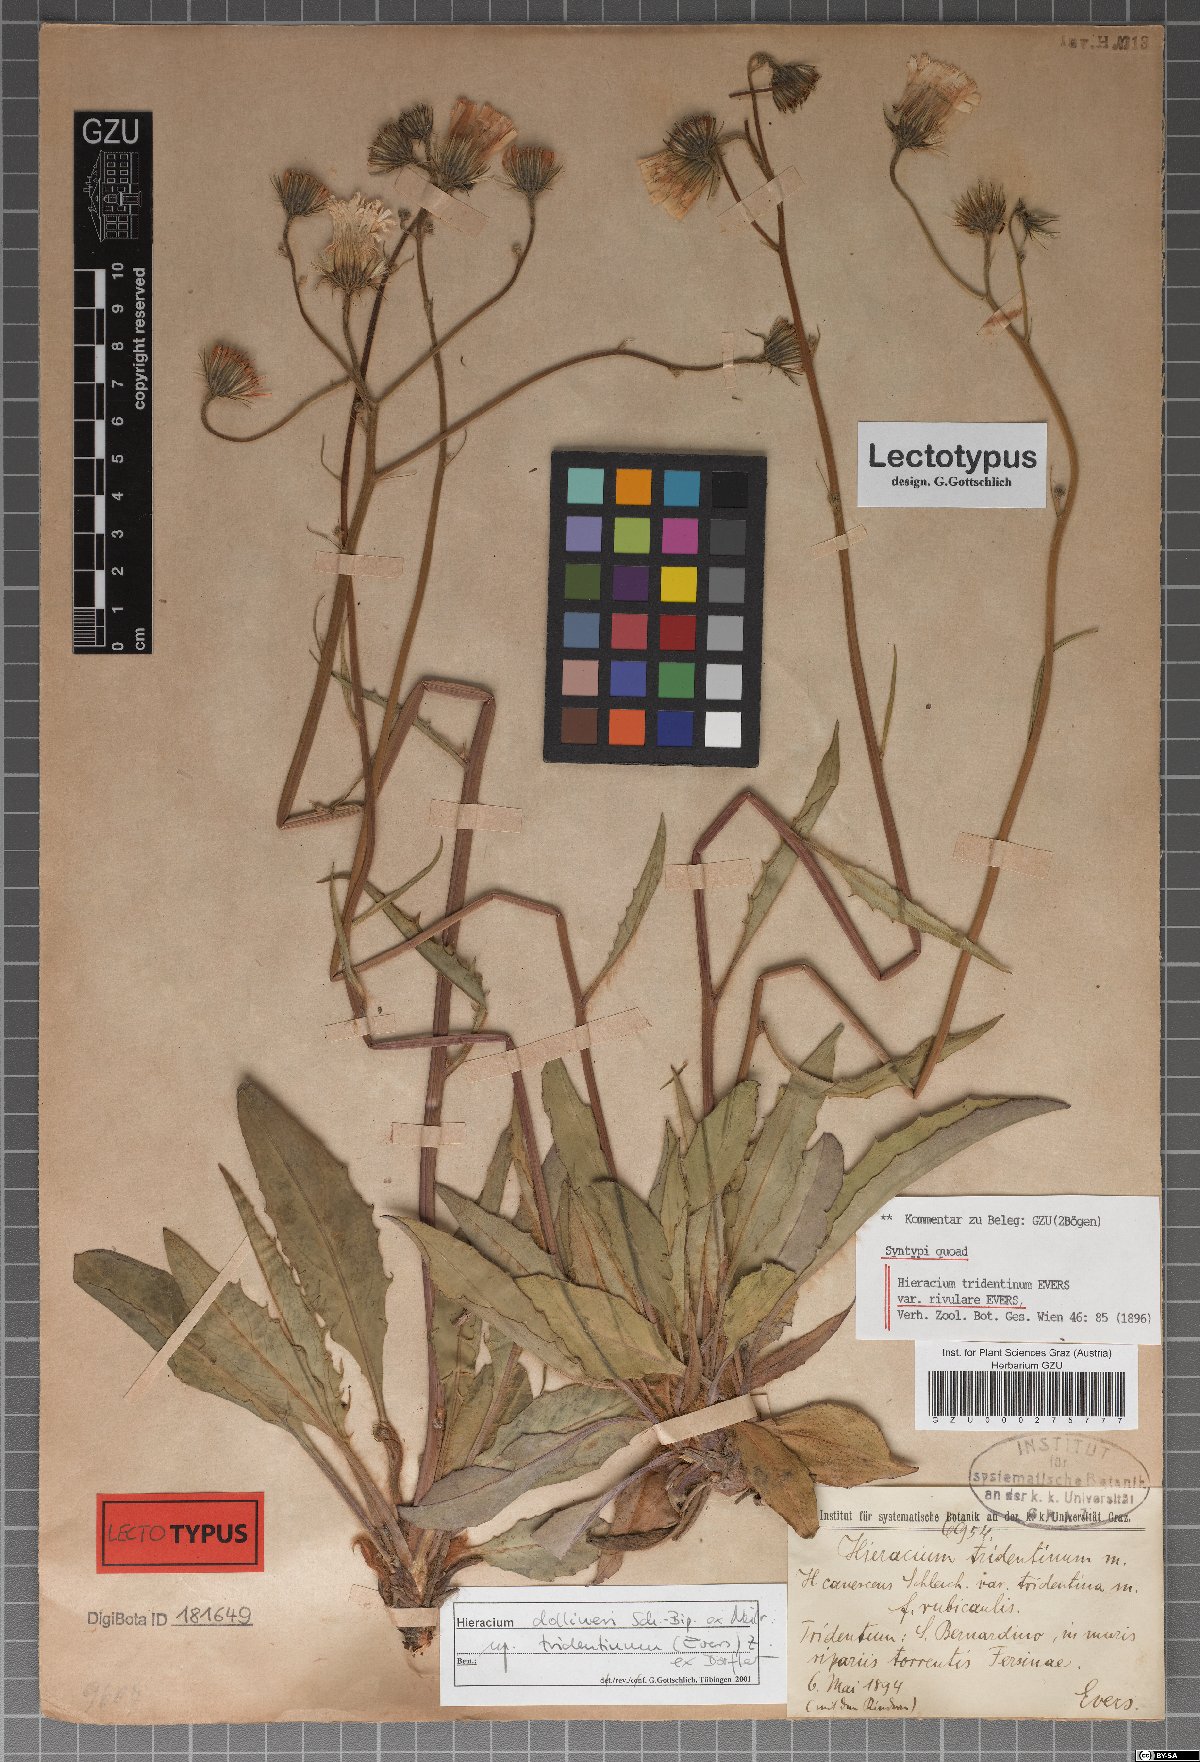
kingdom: Plantae
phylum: Tracheophyta
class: Magnoliopsida
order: Asterales
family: Asteraceae
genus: Hieracium
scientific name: Hieracium tridentinum
